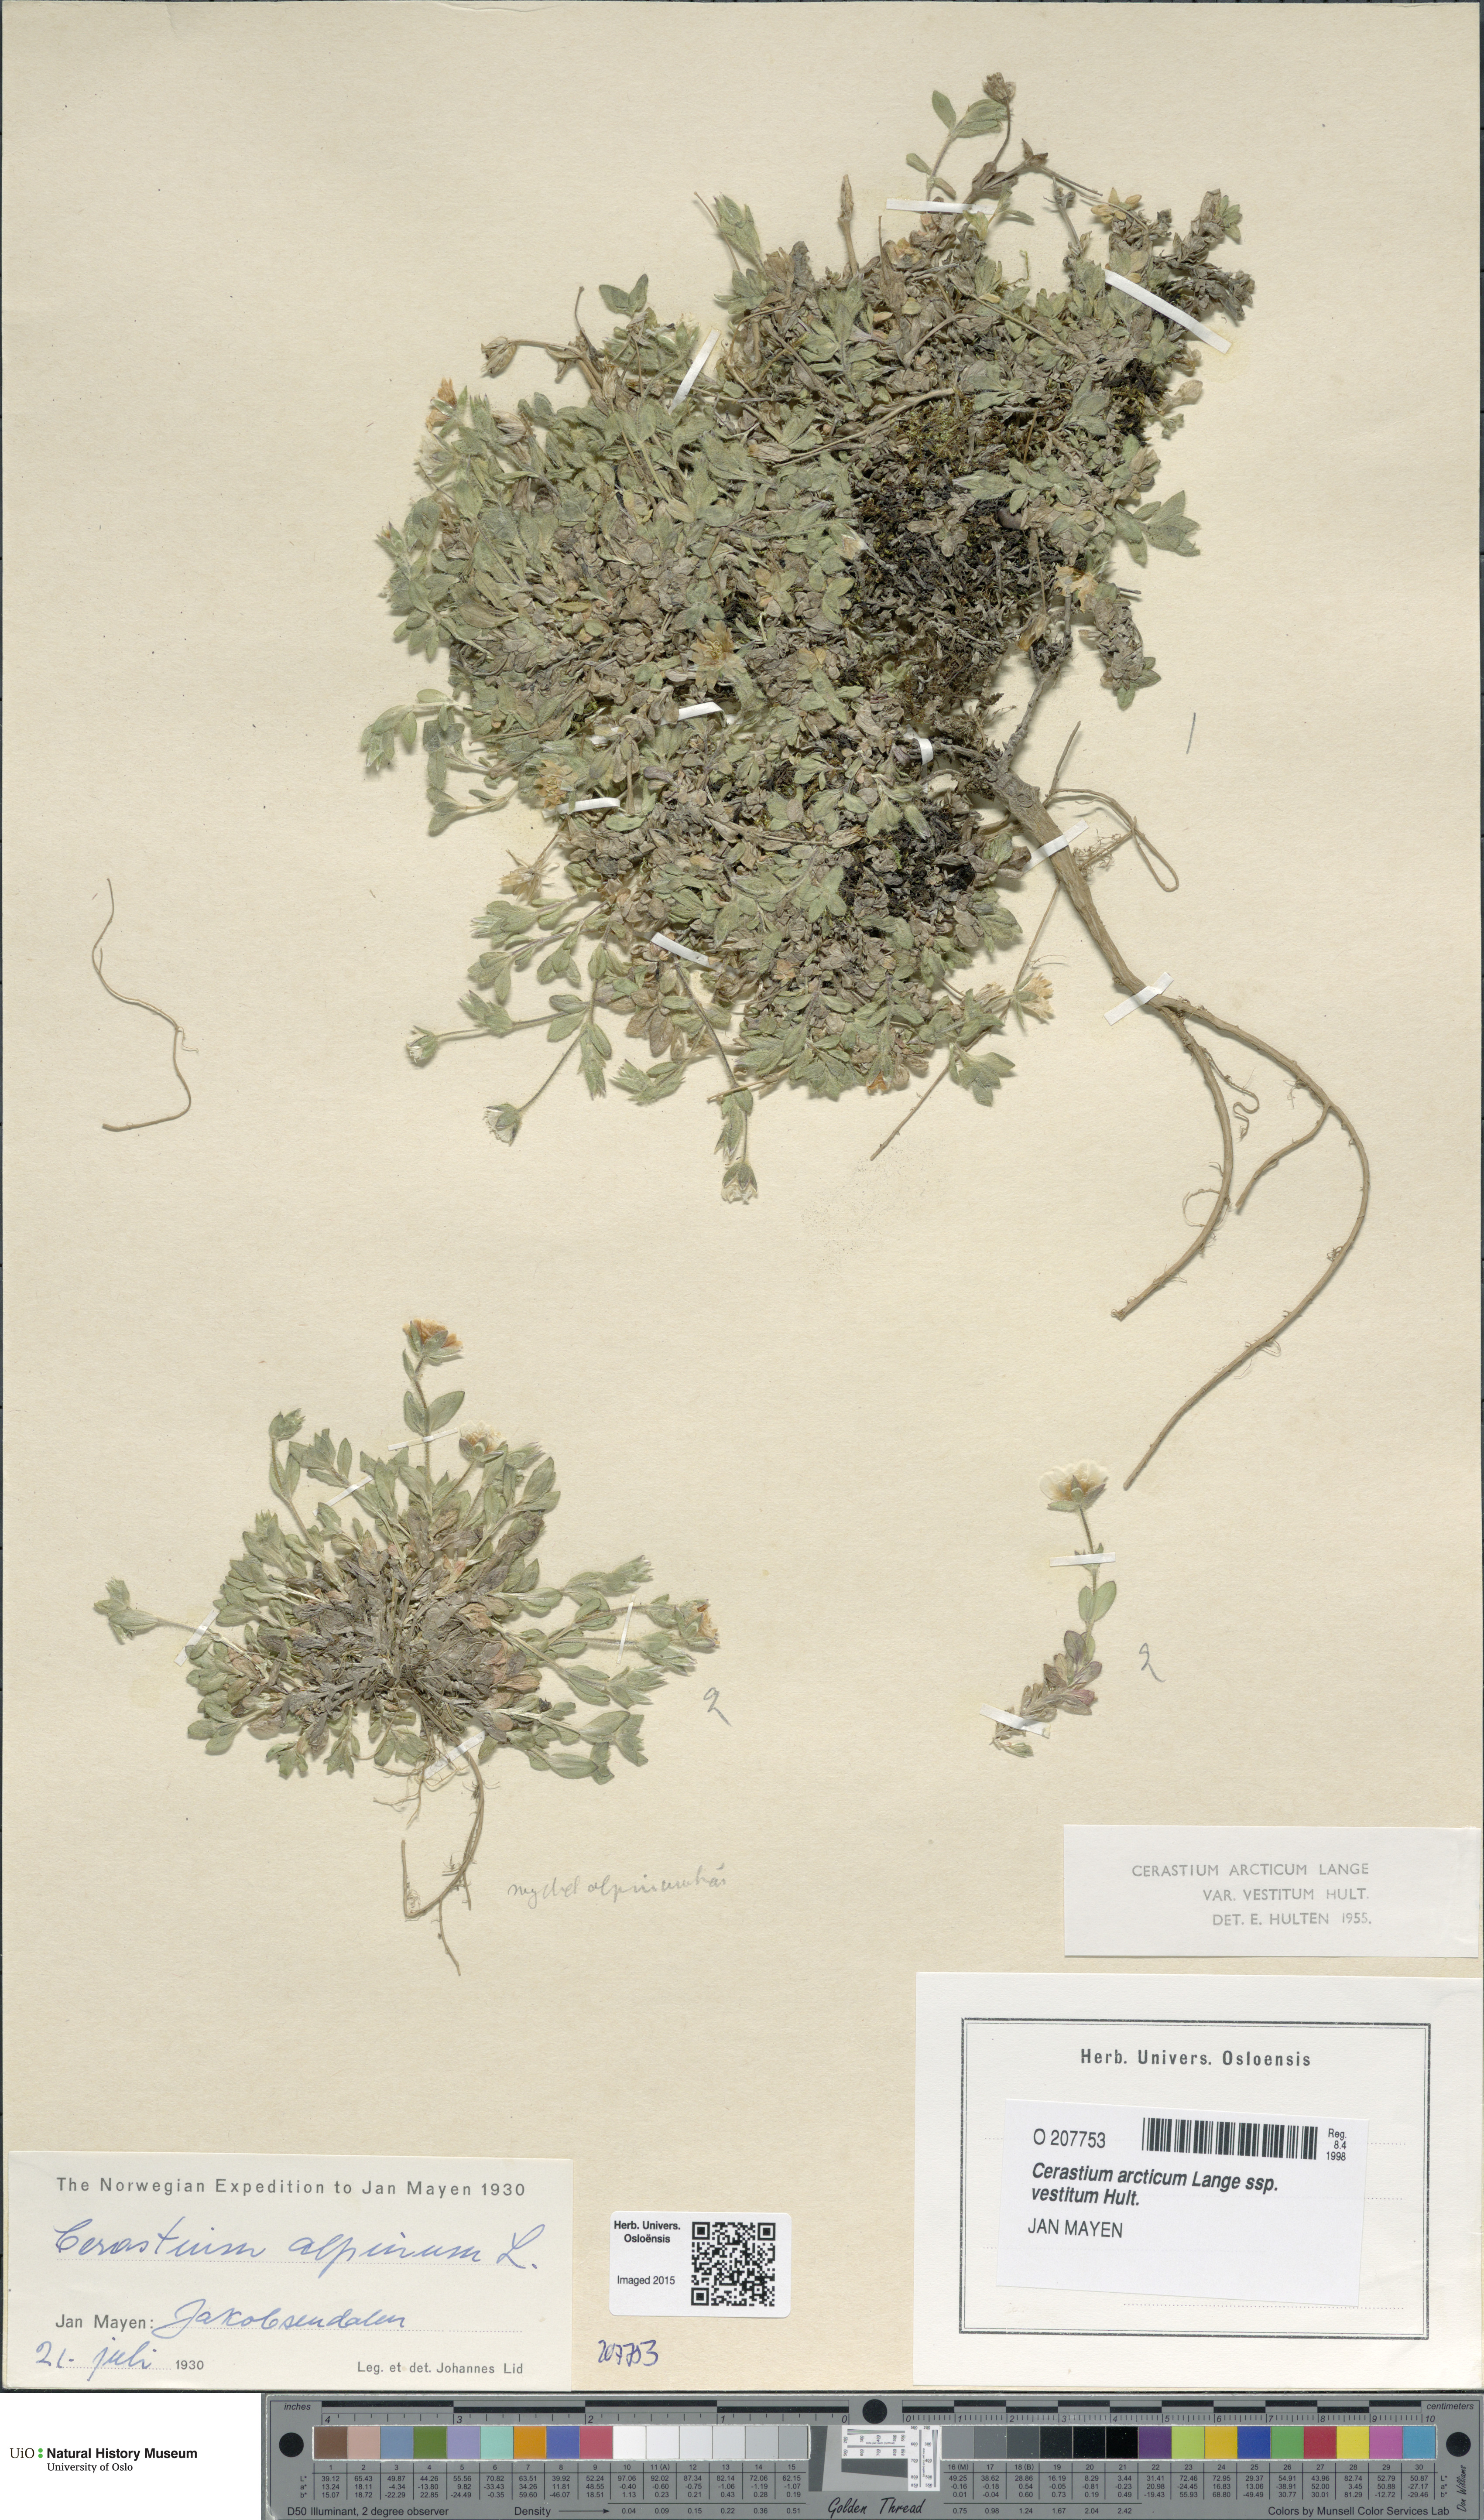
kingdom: Plantae
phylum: Tracheophyta
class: Magnoliopsida
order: Caryophyllales
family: Caryophyllaceae
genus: Cerastium
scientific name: Cerastium arcticum
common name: Arctic mouse-ear
